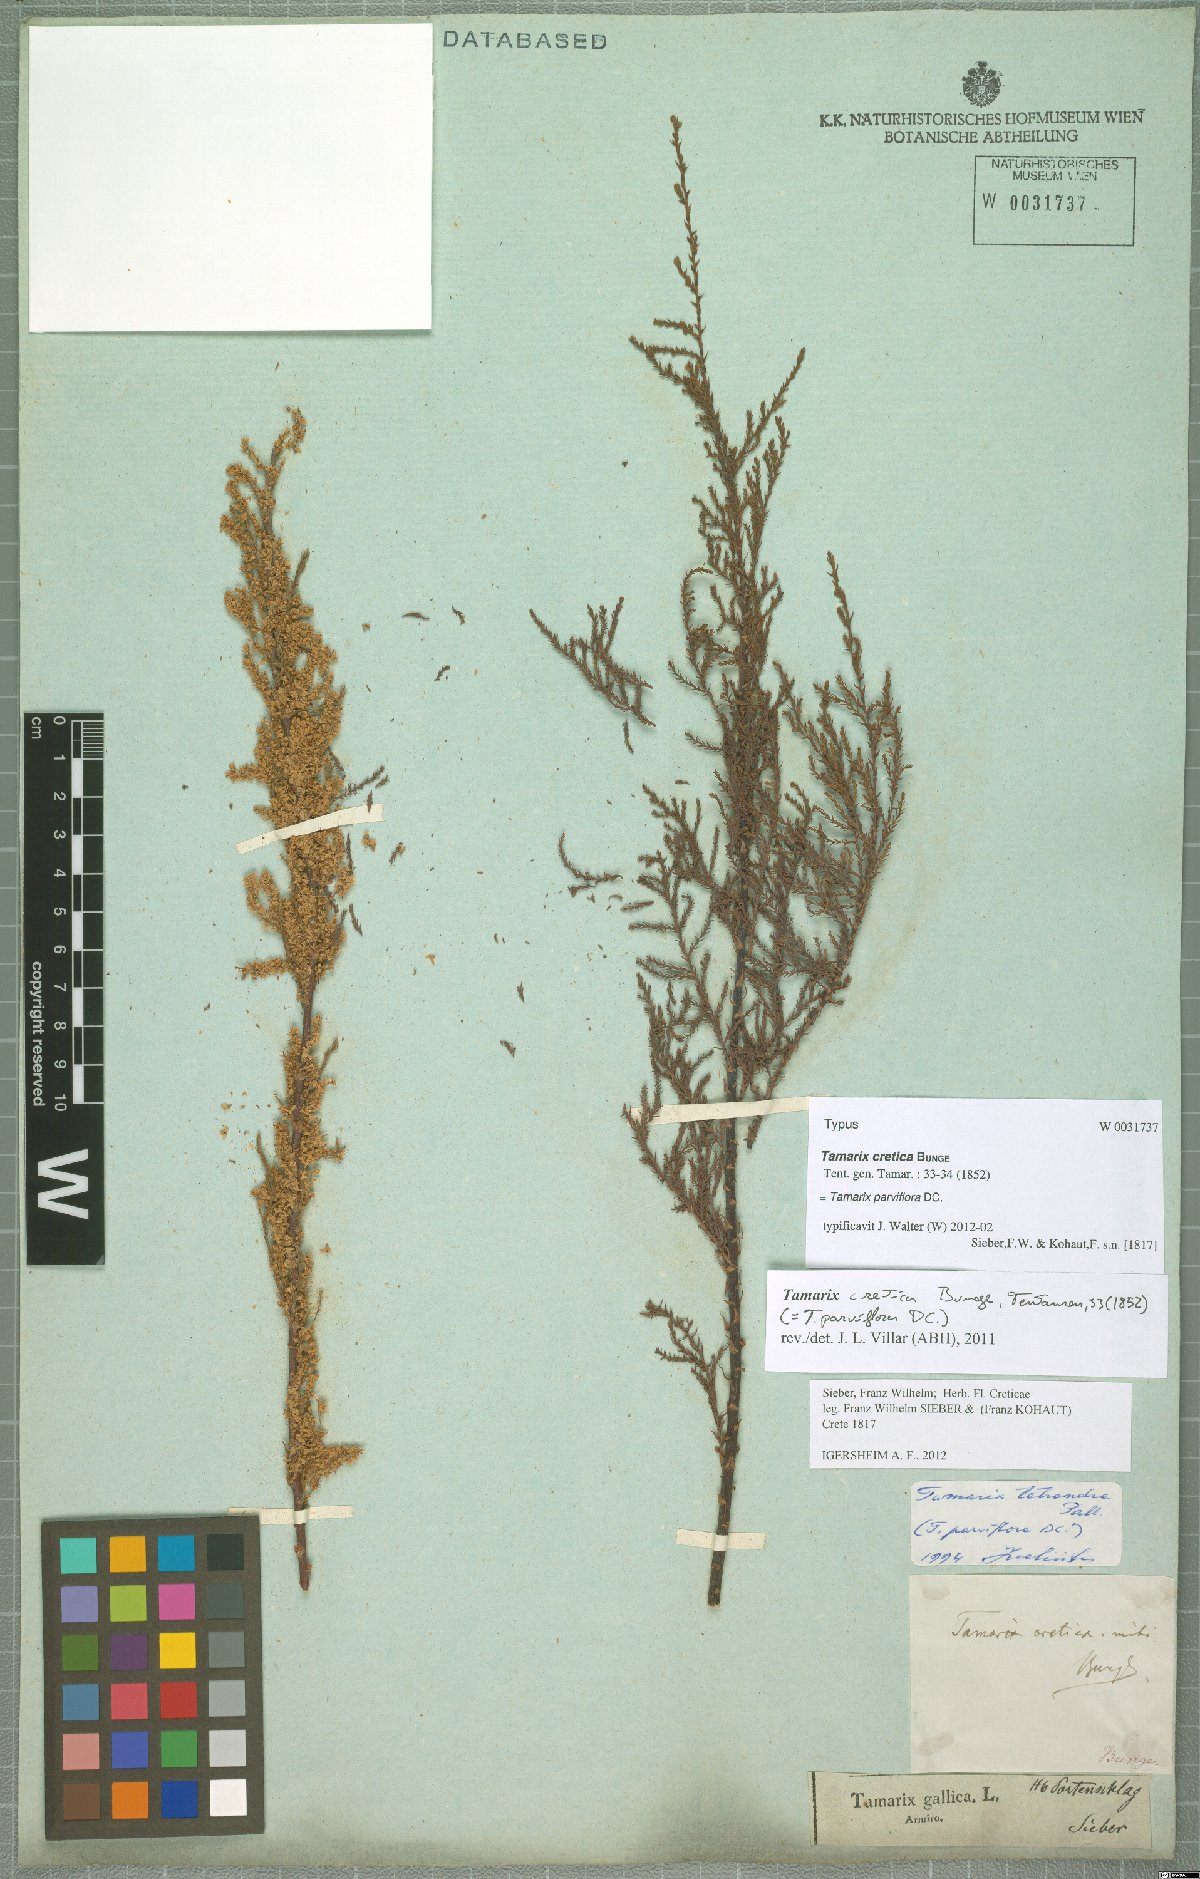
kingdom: Plantae
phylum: Tracheophyta
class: Magnoliopsida
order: Caryophyllales
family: Tamaricaceae
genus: Tamarix
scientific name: Tamarix parviflora
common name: Smallflower tamarisk
